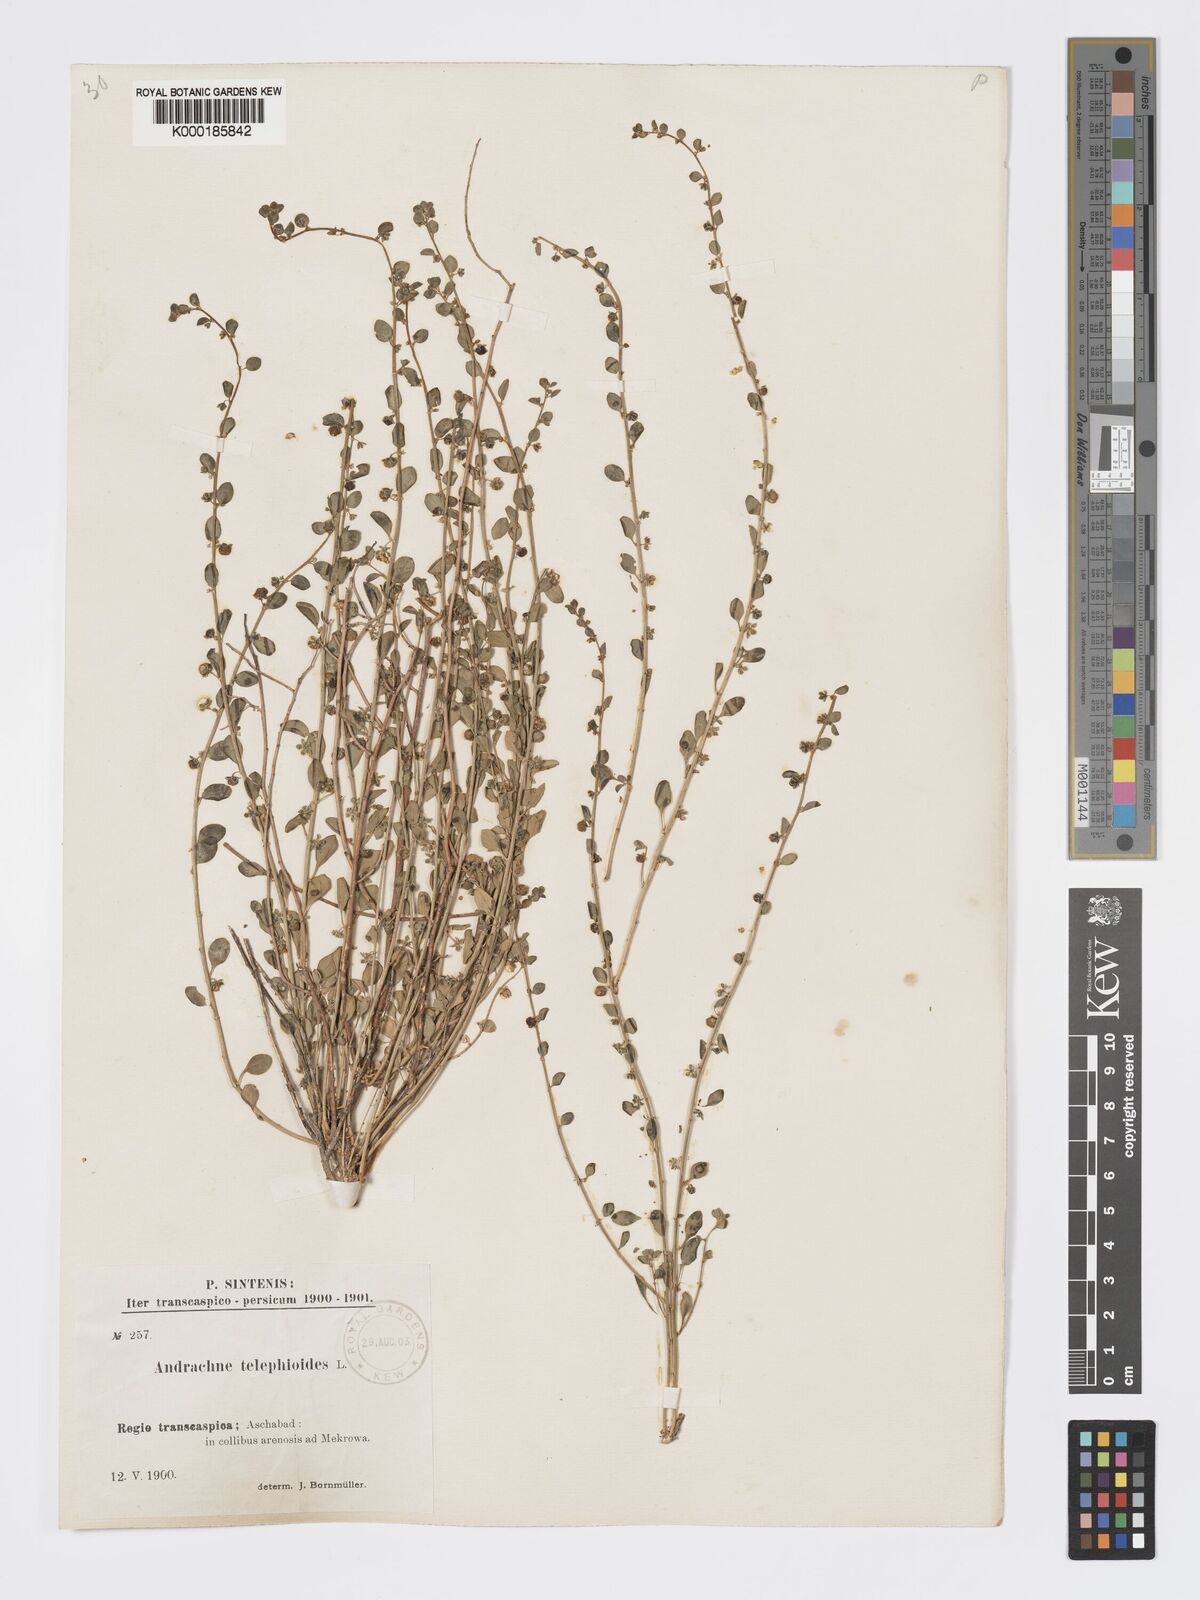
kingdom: Plantae
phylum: Tracheophyta
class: Magnoliopsida
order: Malpighiales
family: Phyllanthaceae
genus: Andrachne
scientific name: Andrachne telephioides
